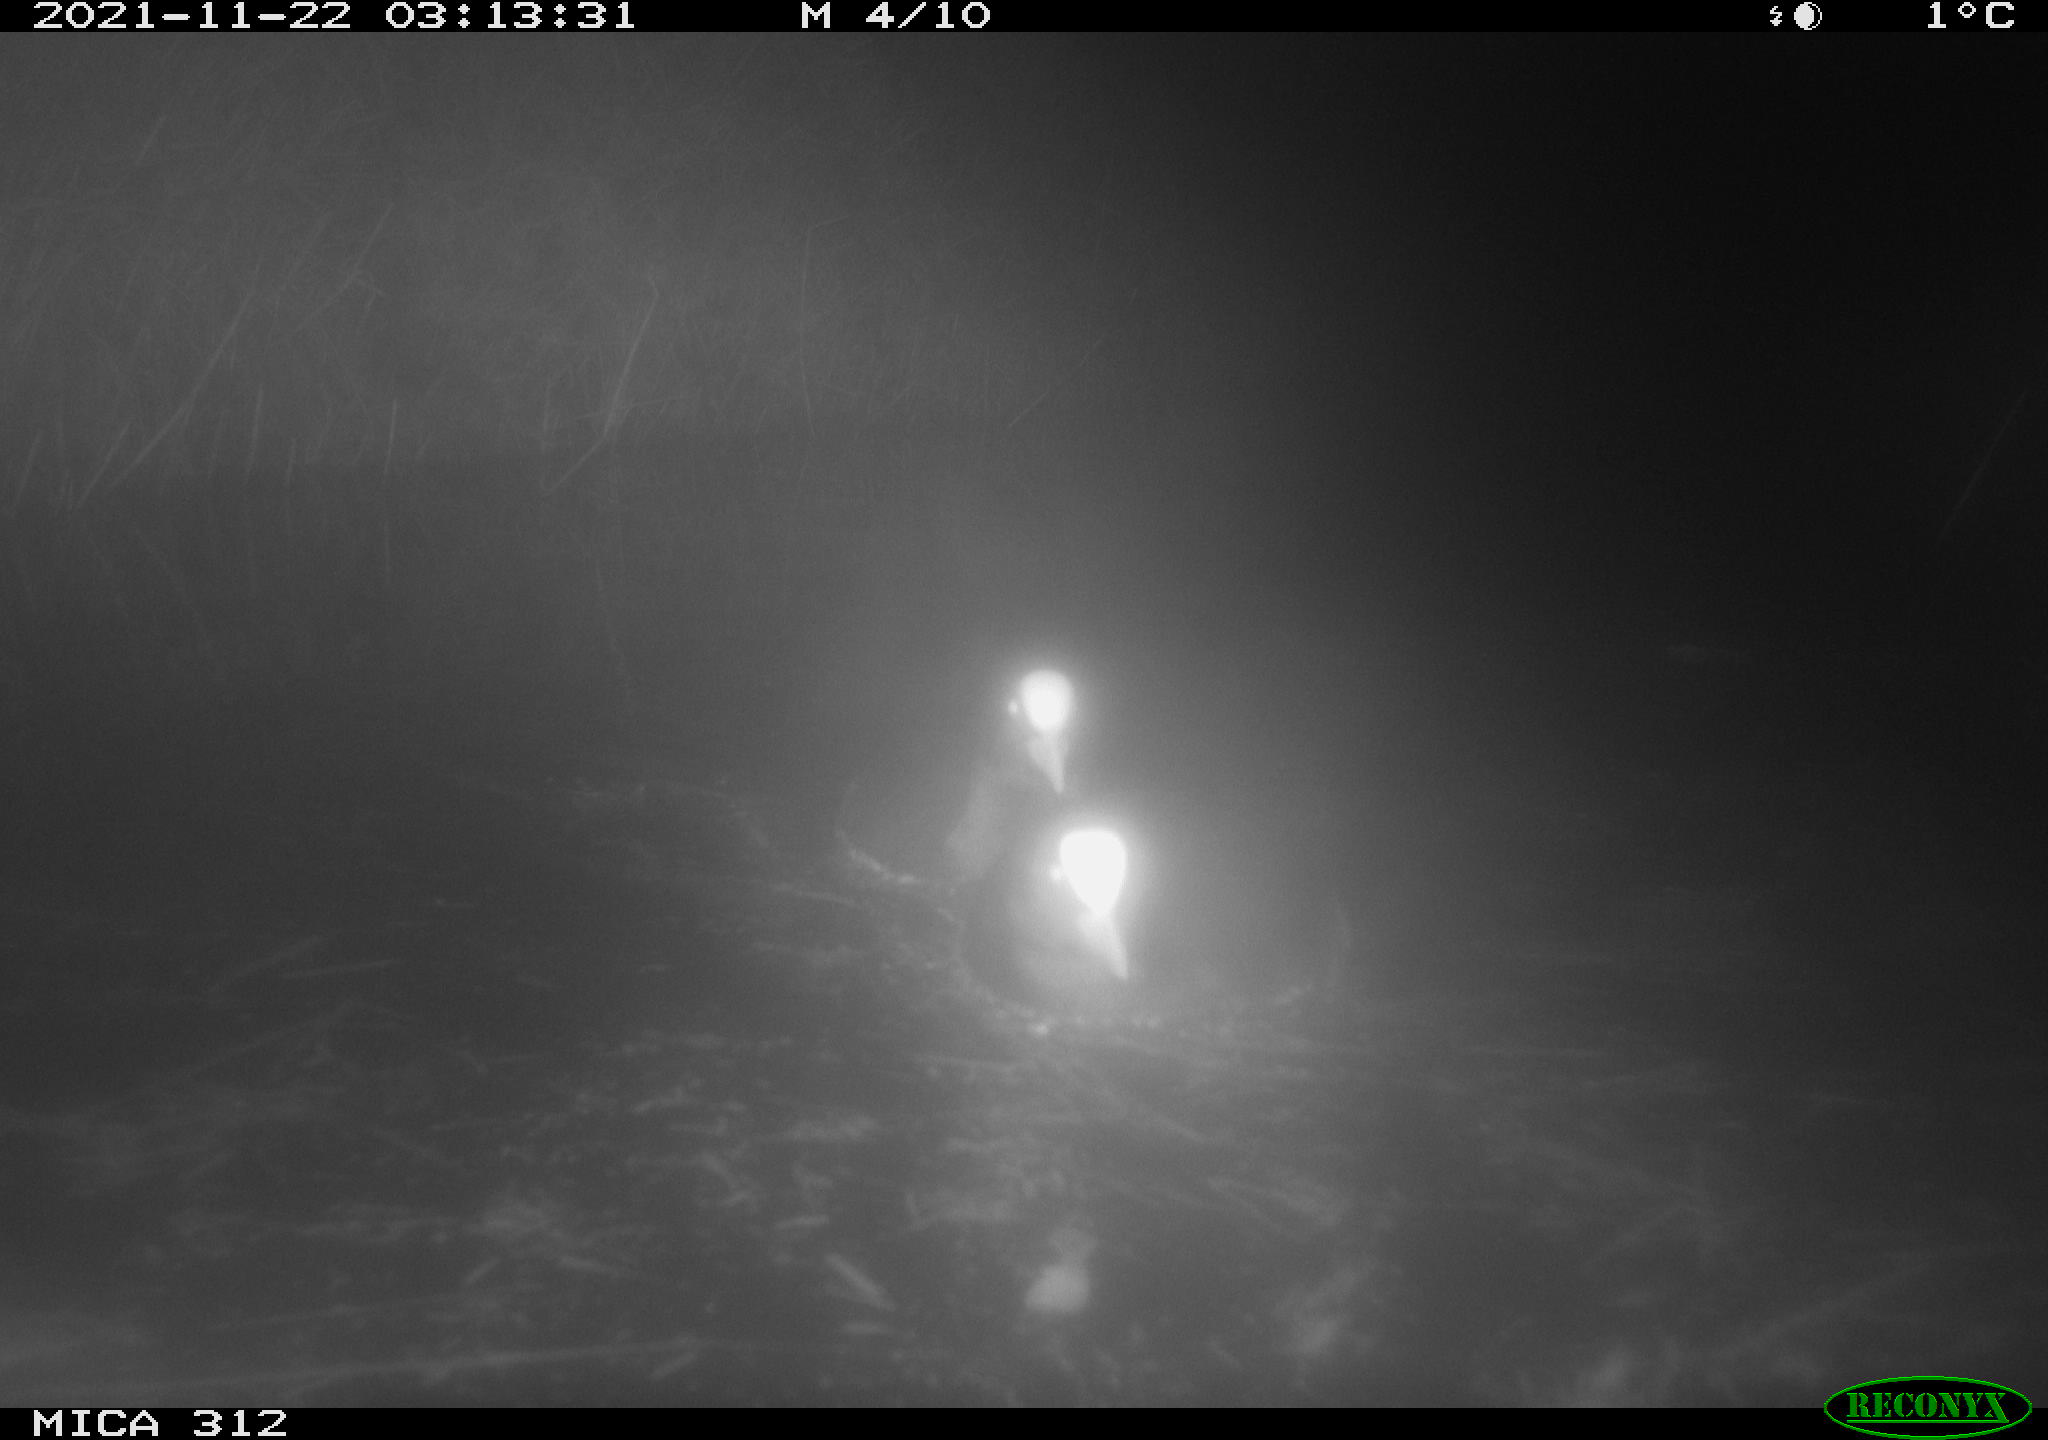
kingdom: Animalia
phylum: Chordata
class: Aves
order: Gruiformes
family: Rallidae
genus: Gallinula
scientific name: Gallinula chloropus
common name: Common moorhen
